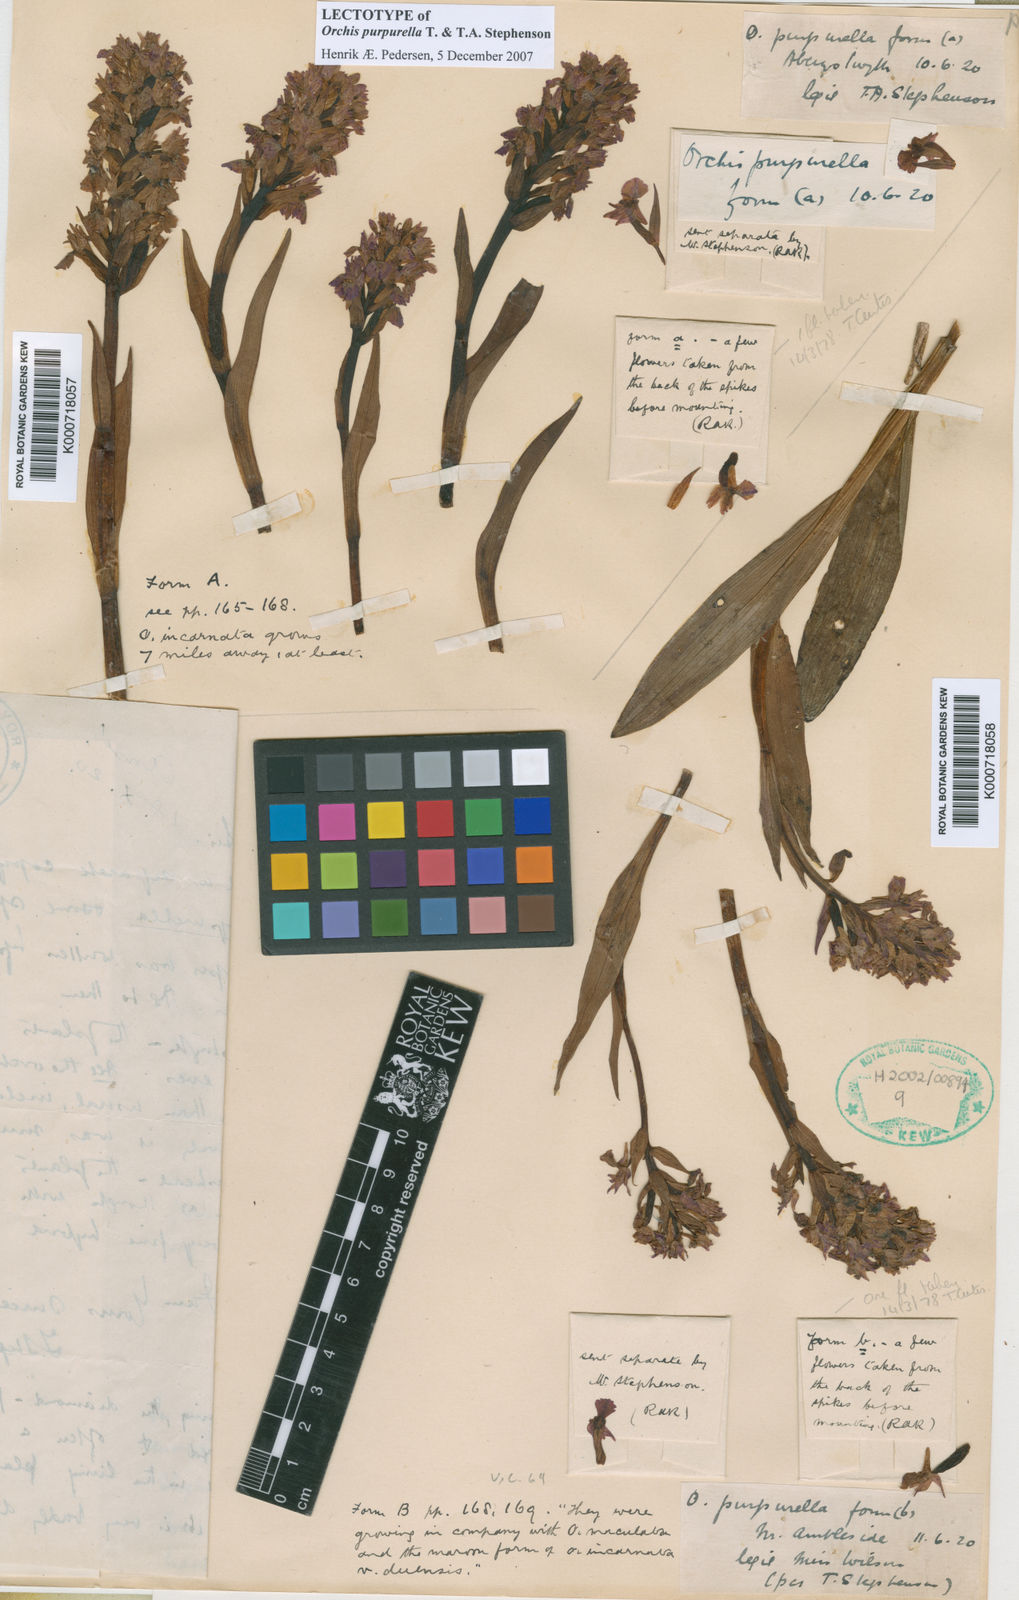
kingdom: Plantae
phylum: Tracheophyta
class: Liliopsida
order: Asparagales
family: Orchidaceae
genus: Dactylorhiza
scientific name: Dactylorhiza majalis
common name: Marsh orchid
